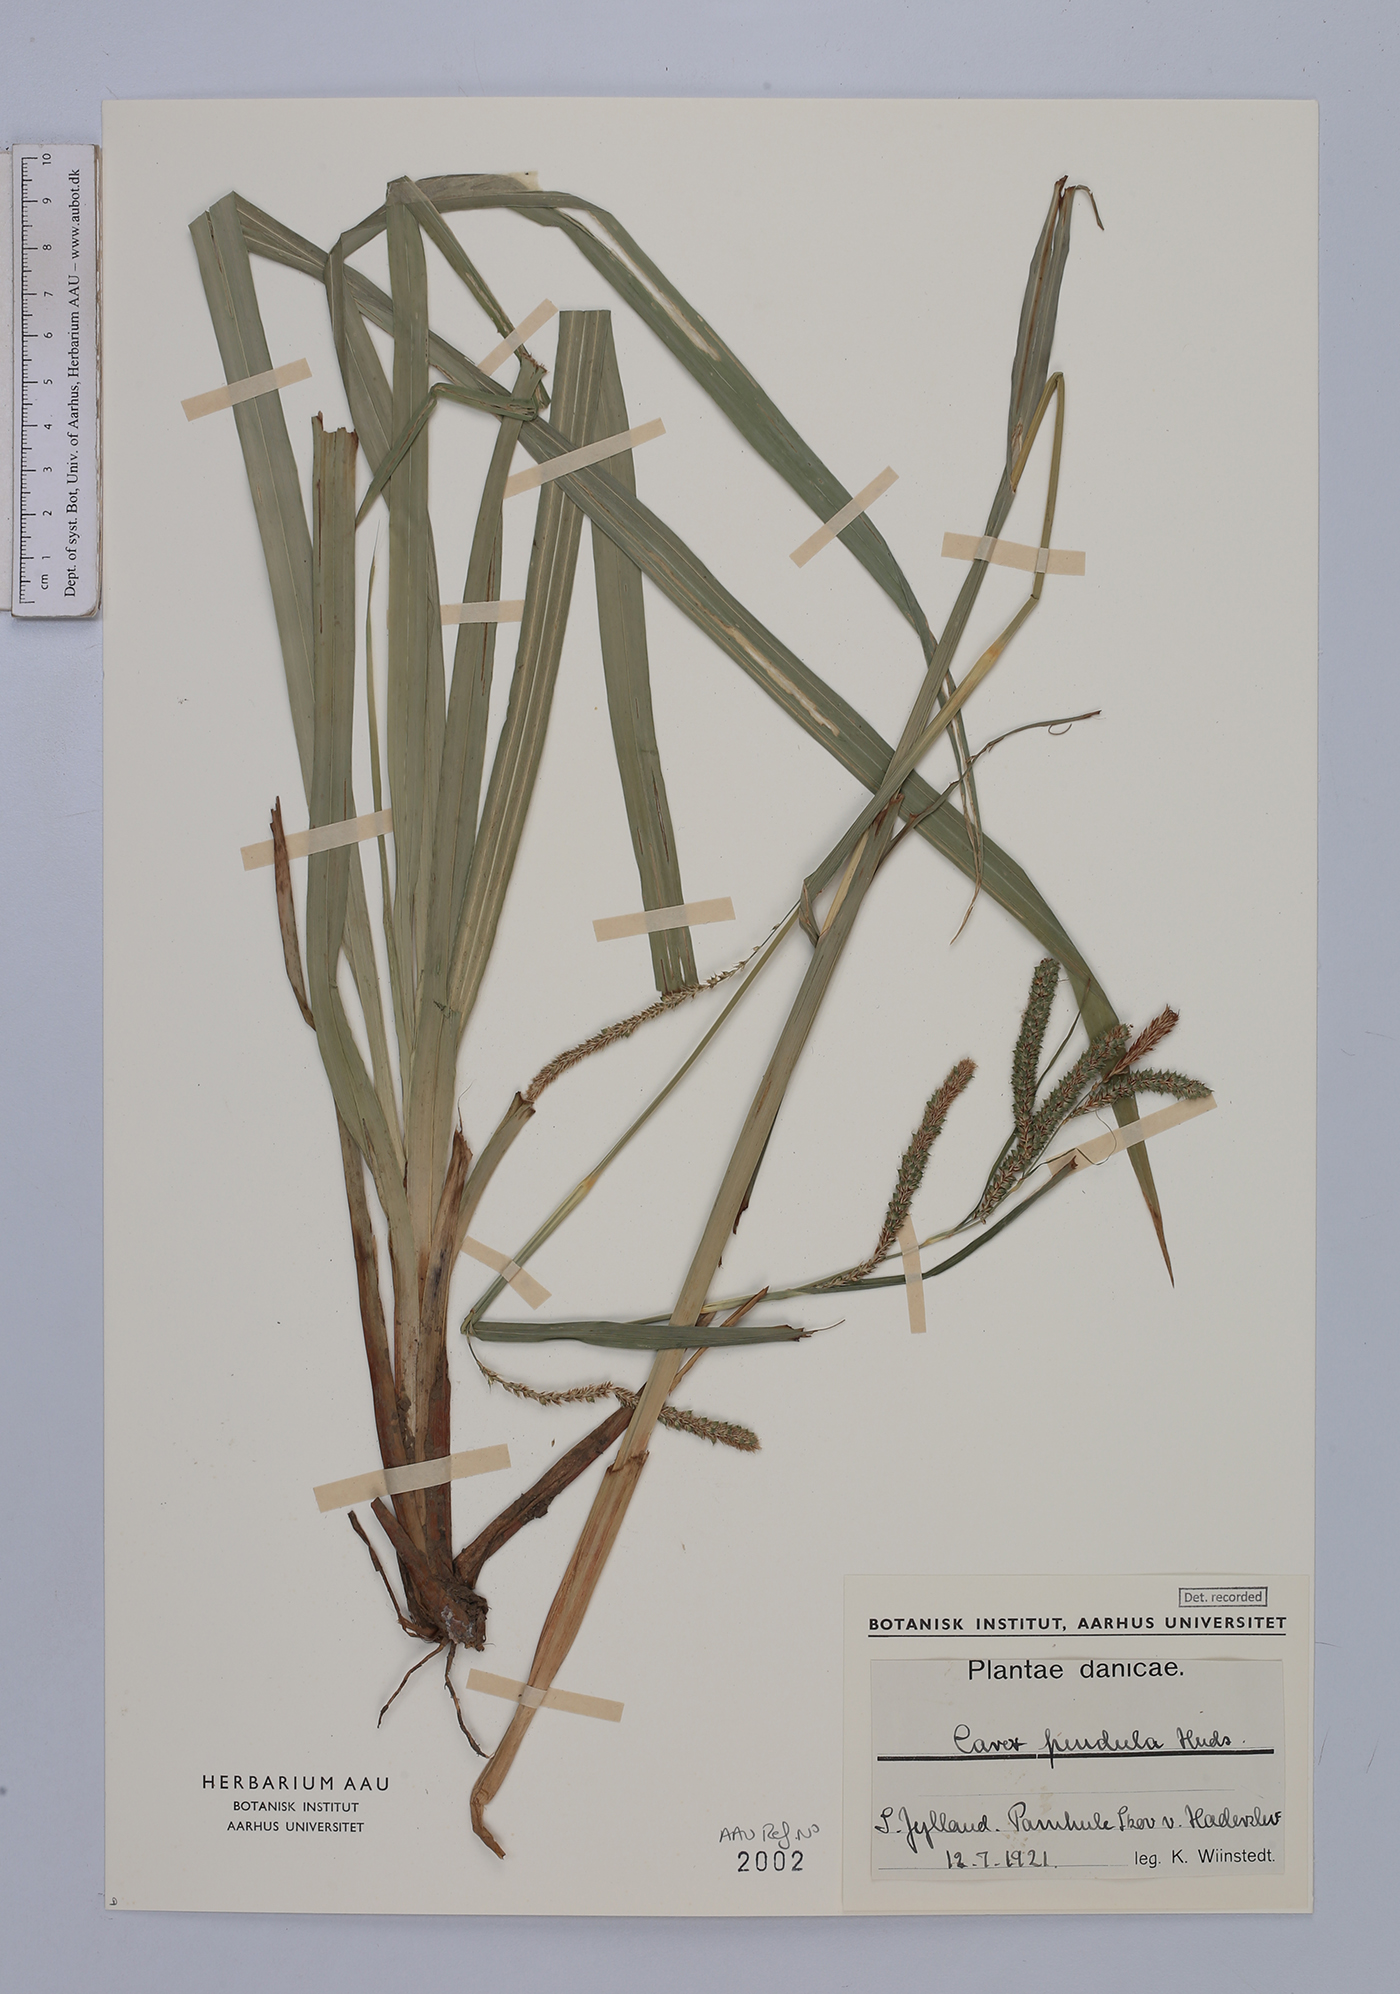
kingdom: Plantae
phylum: Tracheophyta
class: Liliopsida
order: Poales
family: Cyperaceae
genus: Carex
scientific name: Carex pendula
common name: Pendulous sedge
